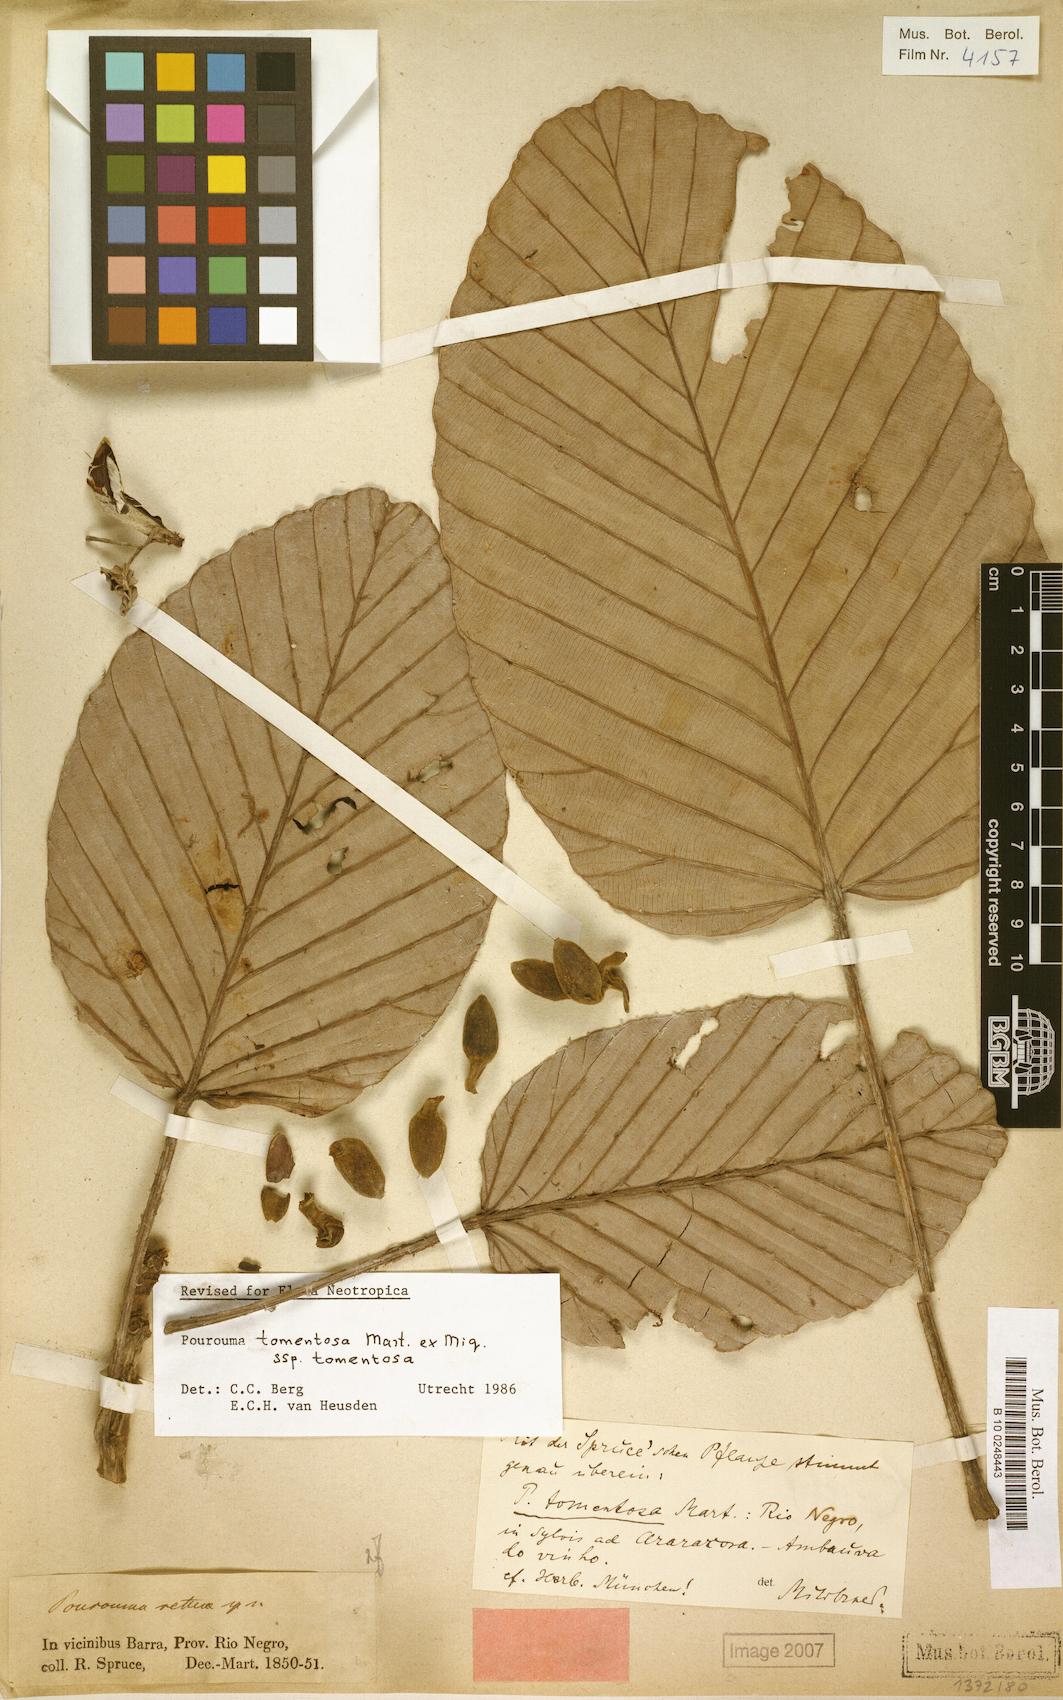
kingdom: Plantae
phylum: Tracheophyta
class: Magnoliopsida
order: Rosales
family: Urticaceae
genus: Pourouma
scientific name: Pourouma tomentosa
